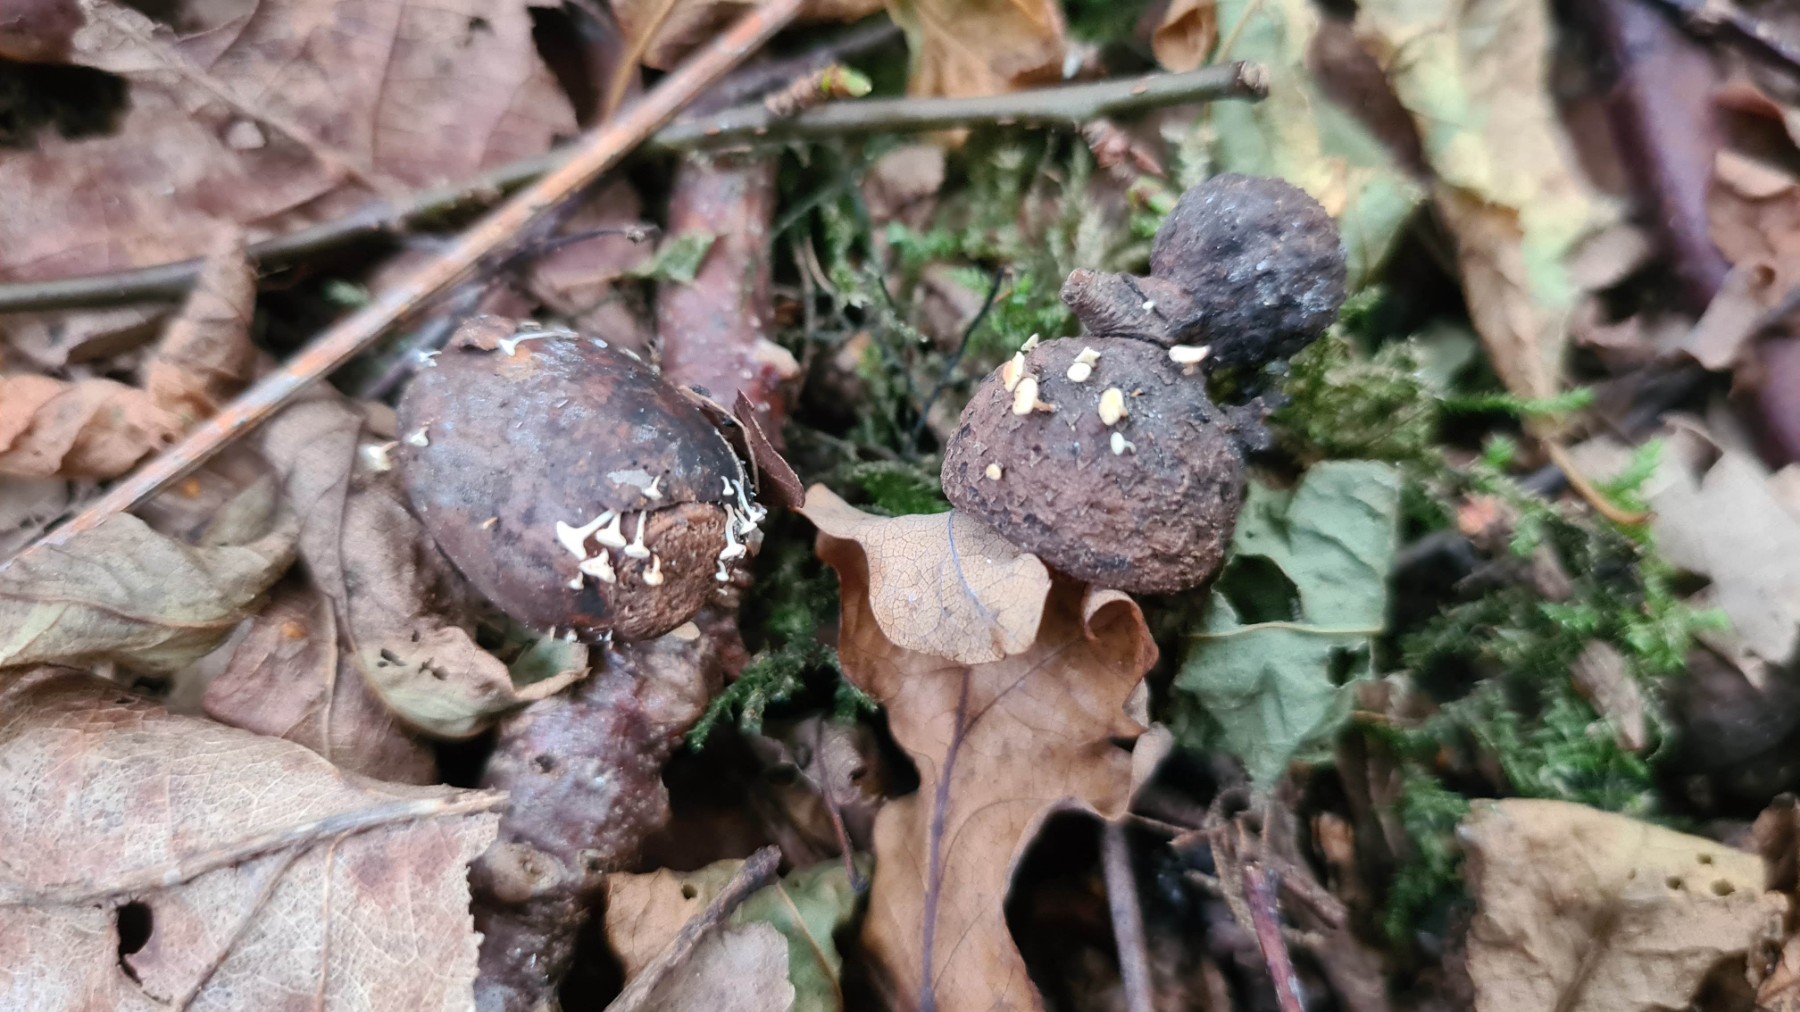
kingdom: Fungi
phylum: Ascomycota
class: Leotiomycetes
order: Helotiales
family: Helotiaceae
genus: Hymenoscyphus
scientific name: Hymenoscyphus fructigenus
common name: frugt-stilkskive
